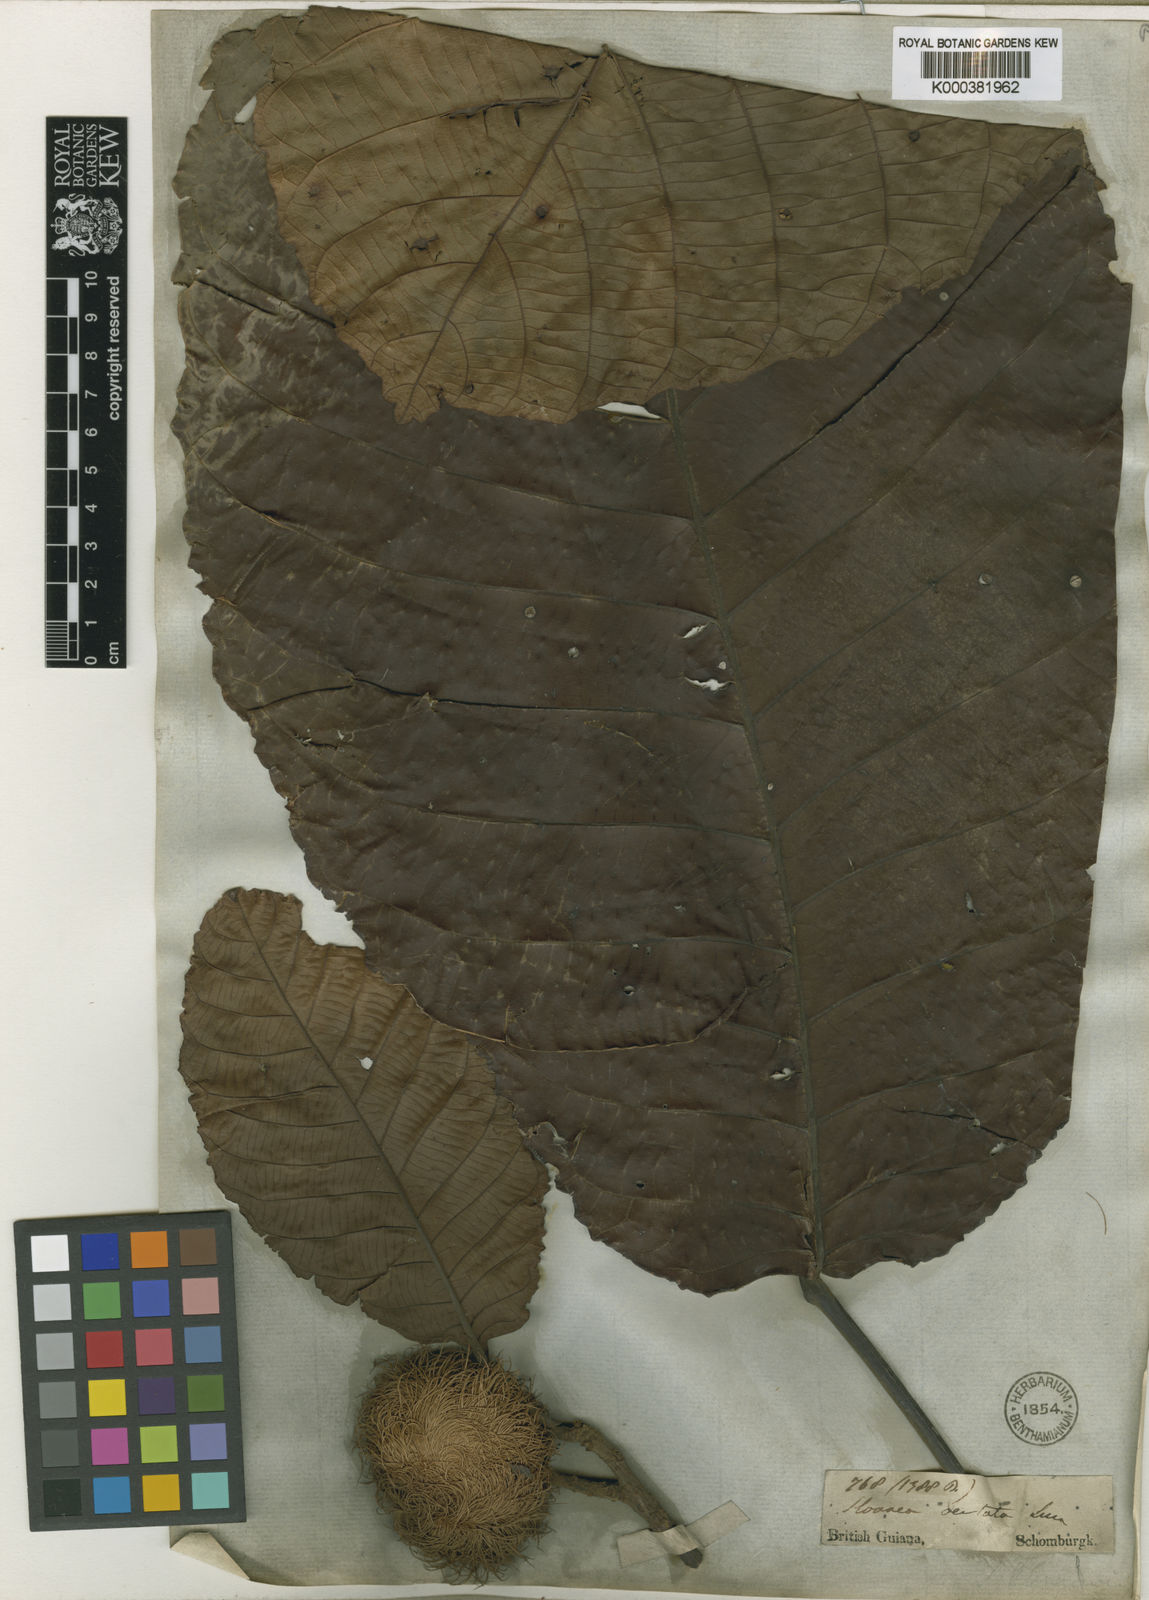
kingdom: Plantae
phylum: Tracheophyta
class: Magnoliopsida
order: Oxalidales
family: Elaeocarpaceae
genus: Sloanea
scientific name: Sloanea grandiflora
